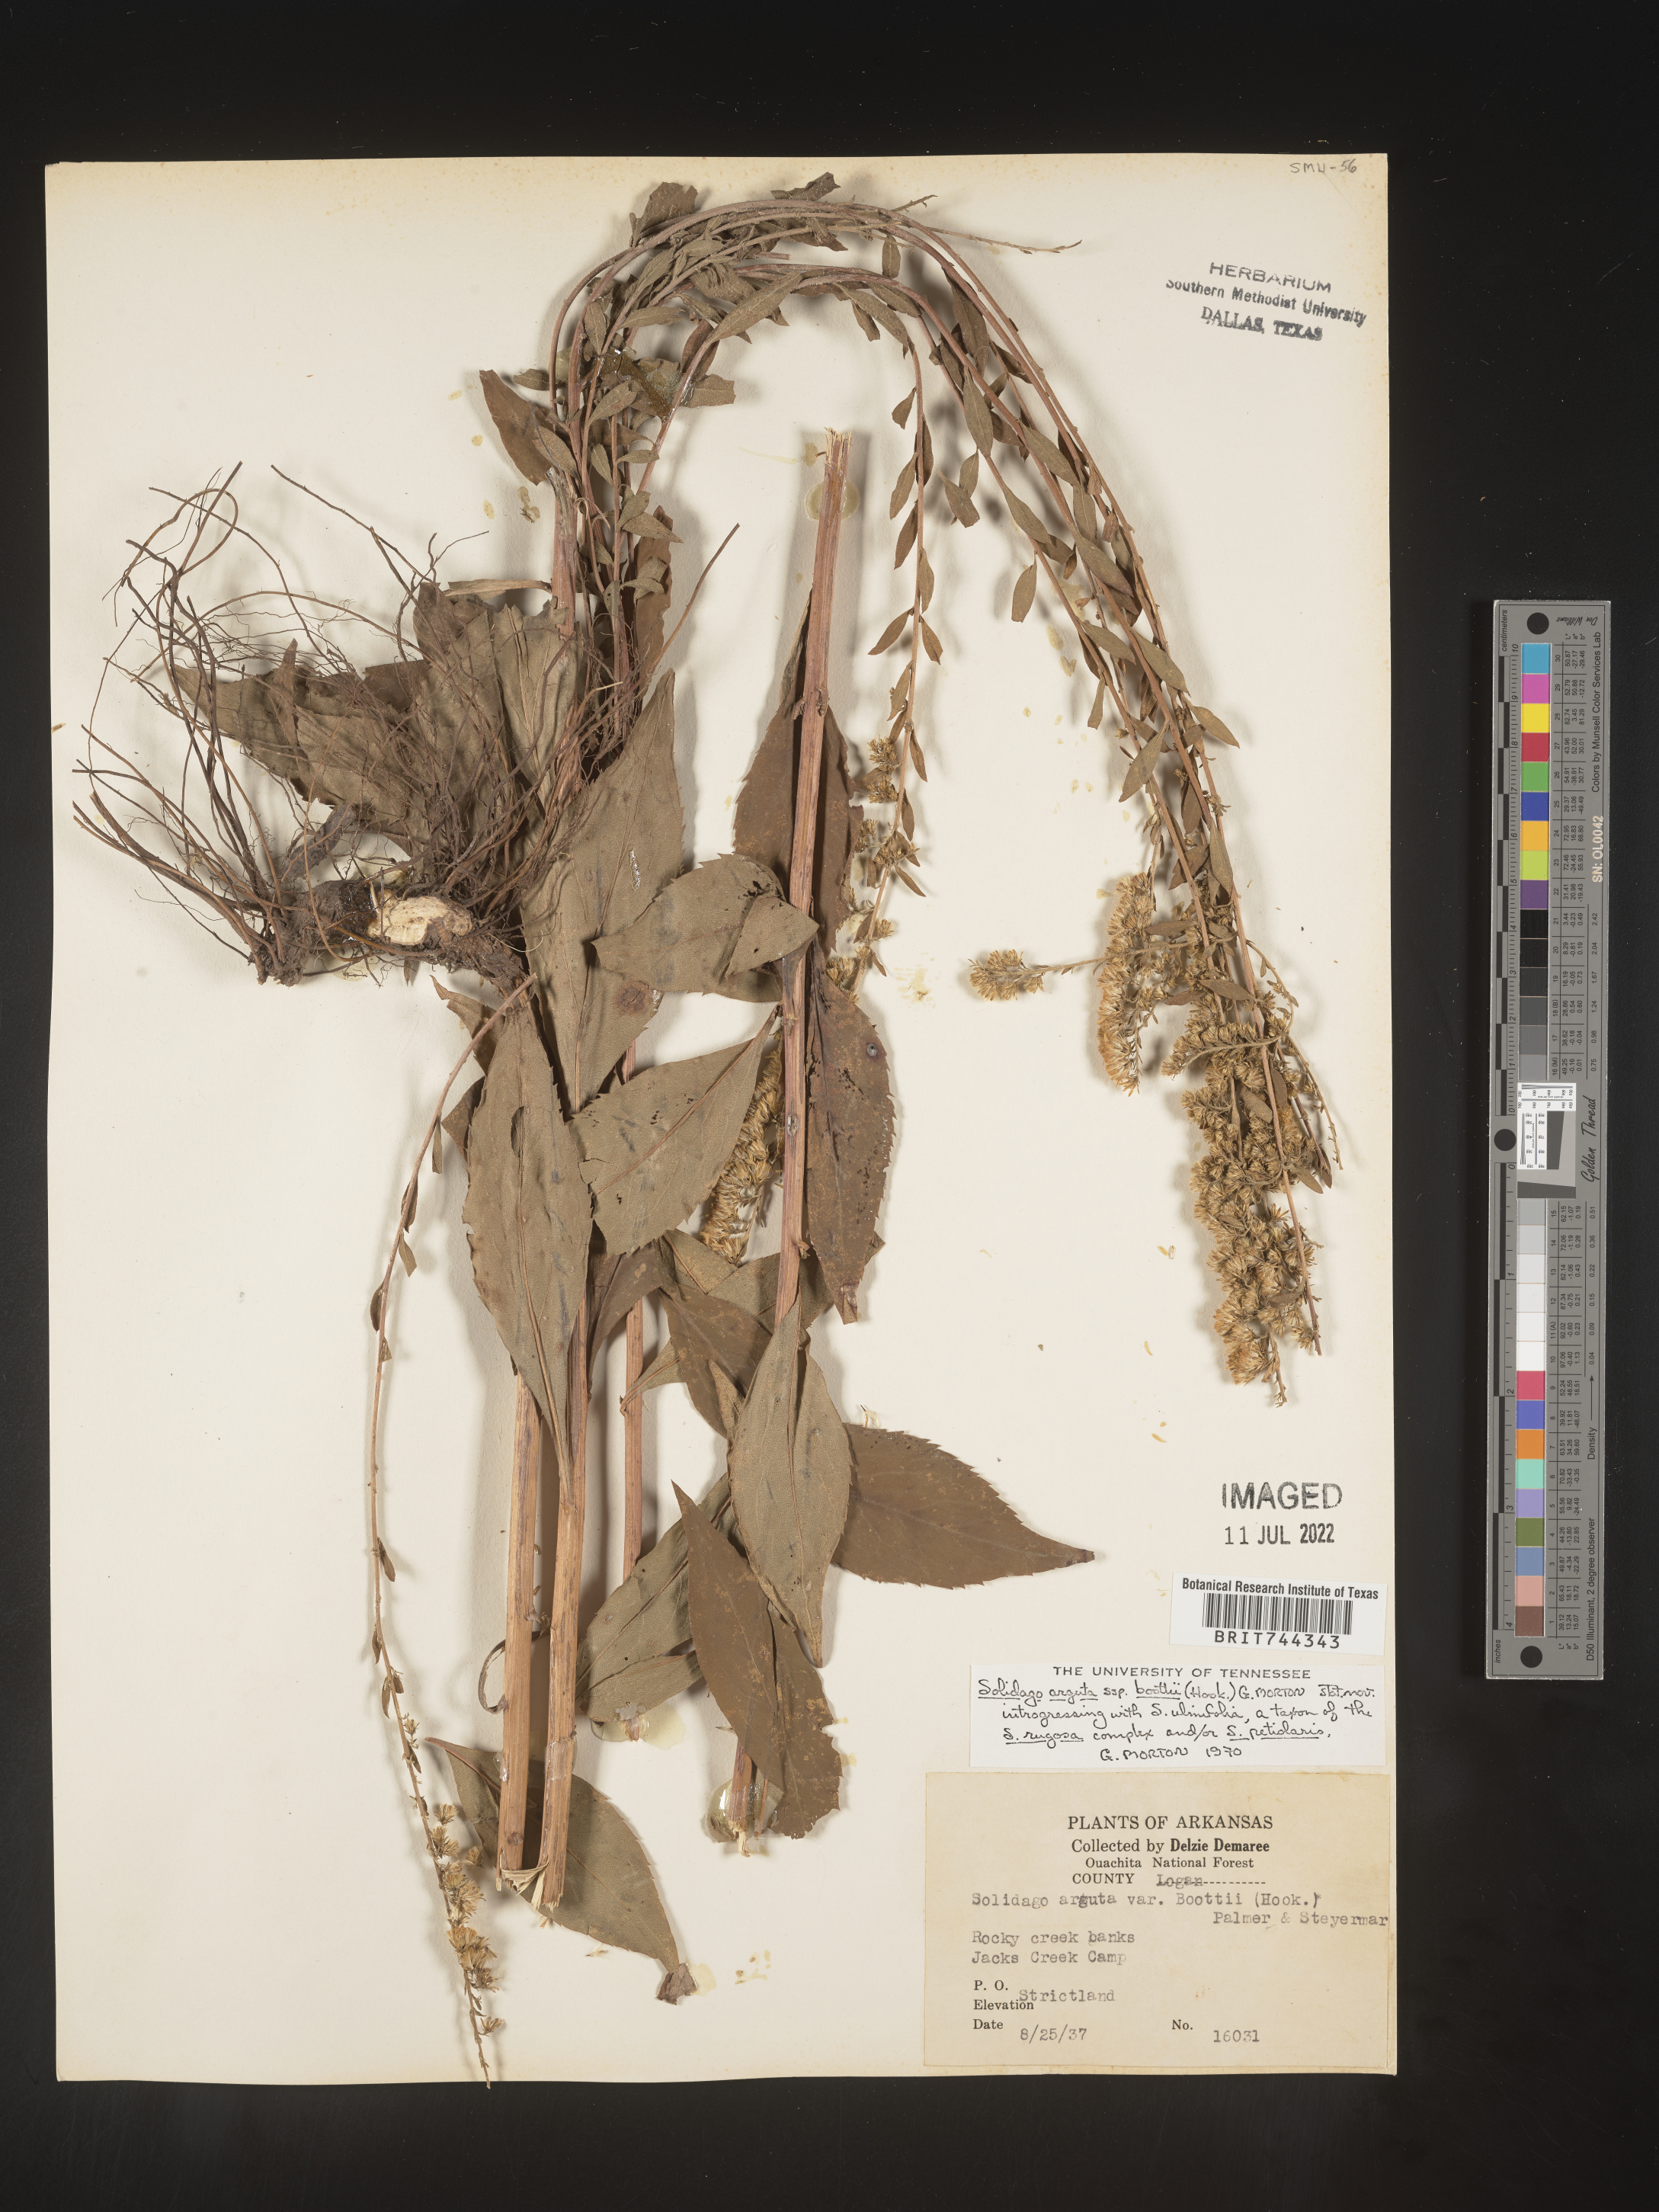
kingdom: Plantae
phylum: Tracheophyta
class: Magnoliopsida
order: Asterales
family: Asteraceae
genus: Solidago
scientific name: Solidago arguta
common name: Atlantic goldenrod
